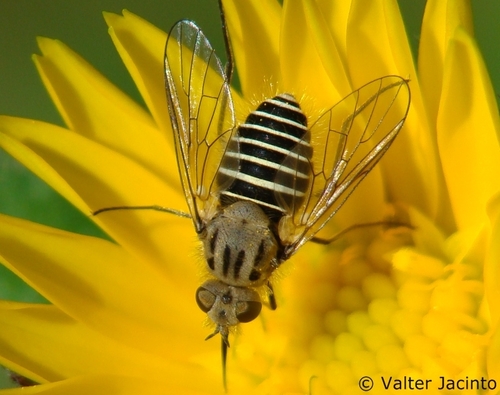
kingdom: Animalia
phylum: Arthropoda
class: Insecta
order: Diptera
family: Bombyliidae
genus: Protypusia
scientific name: Protypusia incisa
